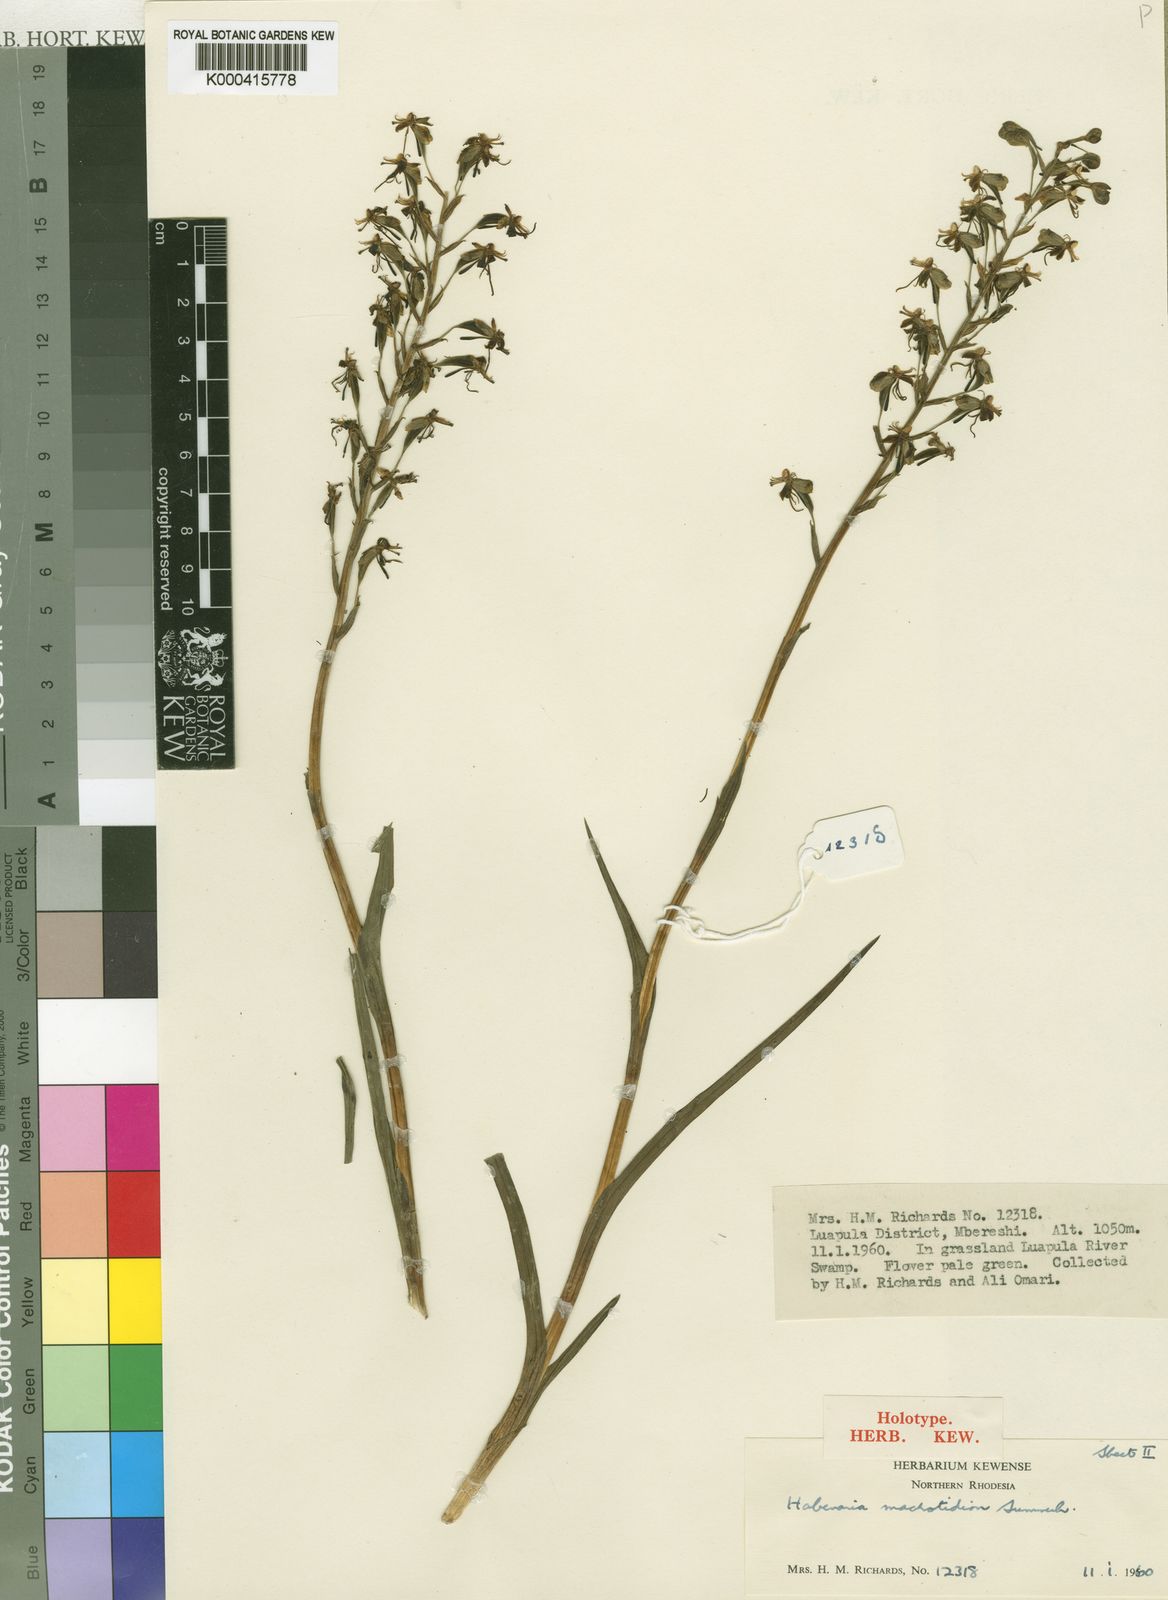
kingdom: Plantae
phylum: Tracheophyta
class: Liliopsida
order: Asparagales
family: Orchidaceae
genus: Habenaria
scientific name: Habenaria macrotidion
